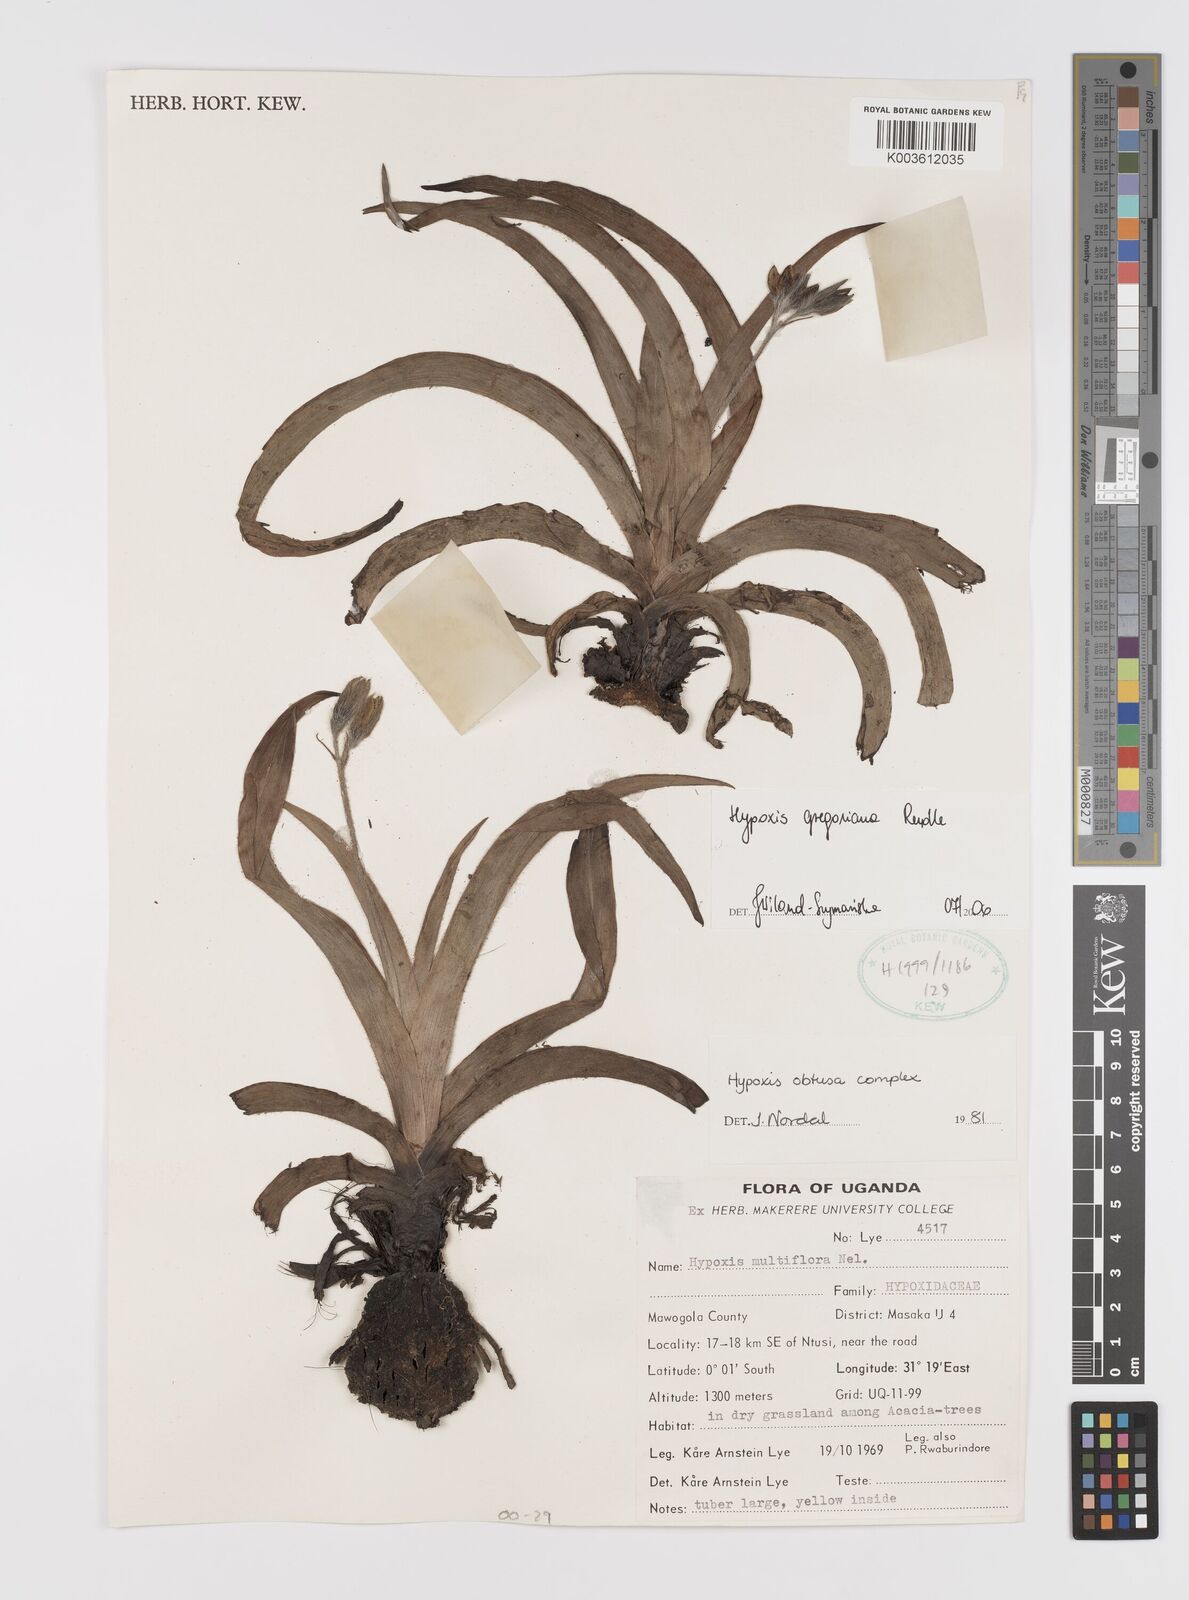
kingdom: Plantae
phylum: Tracheophyta
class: Liliopsida
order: Asparagales
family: Hypoxidaceae
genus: Hypoxis
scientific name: Hypoxis gregoriana
